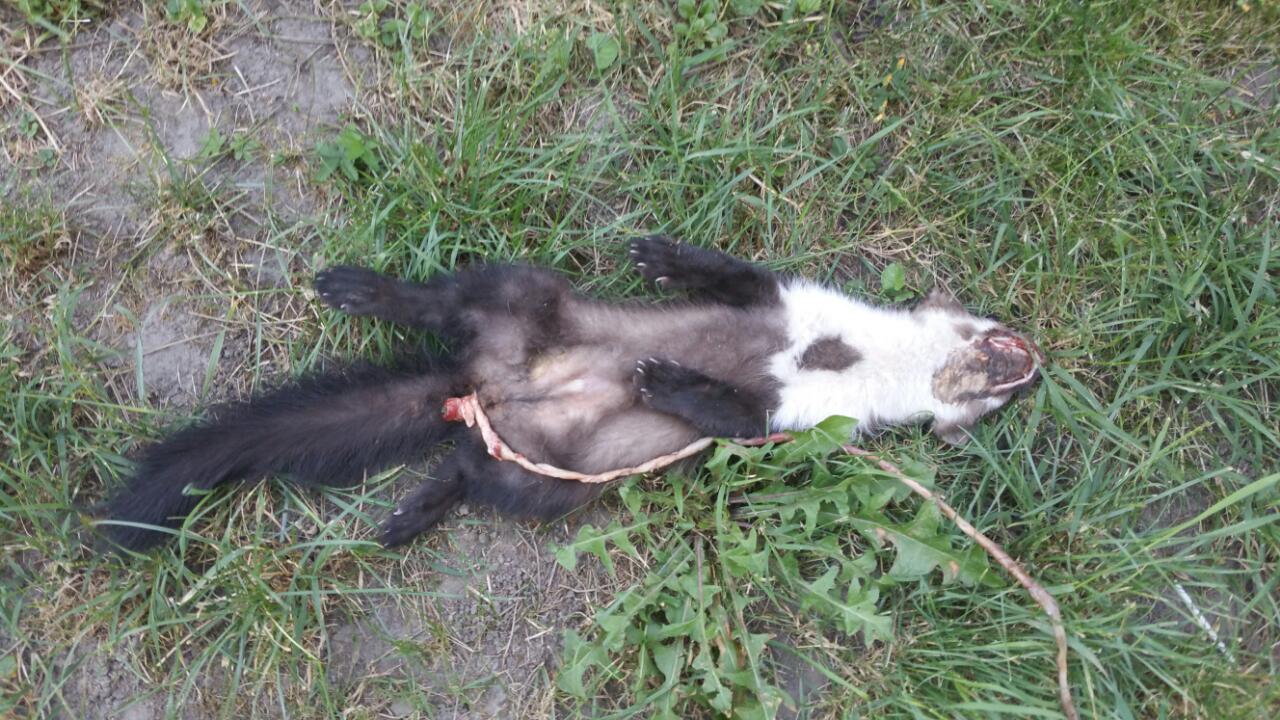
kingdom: Animalia
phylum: Chordata
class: Mammalia
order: Carnivora
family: Mustelidae
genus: Martes
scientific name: Martes foina
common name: Beech marten
